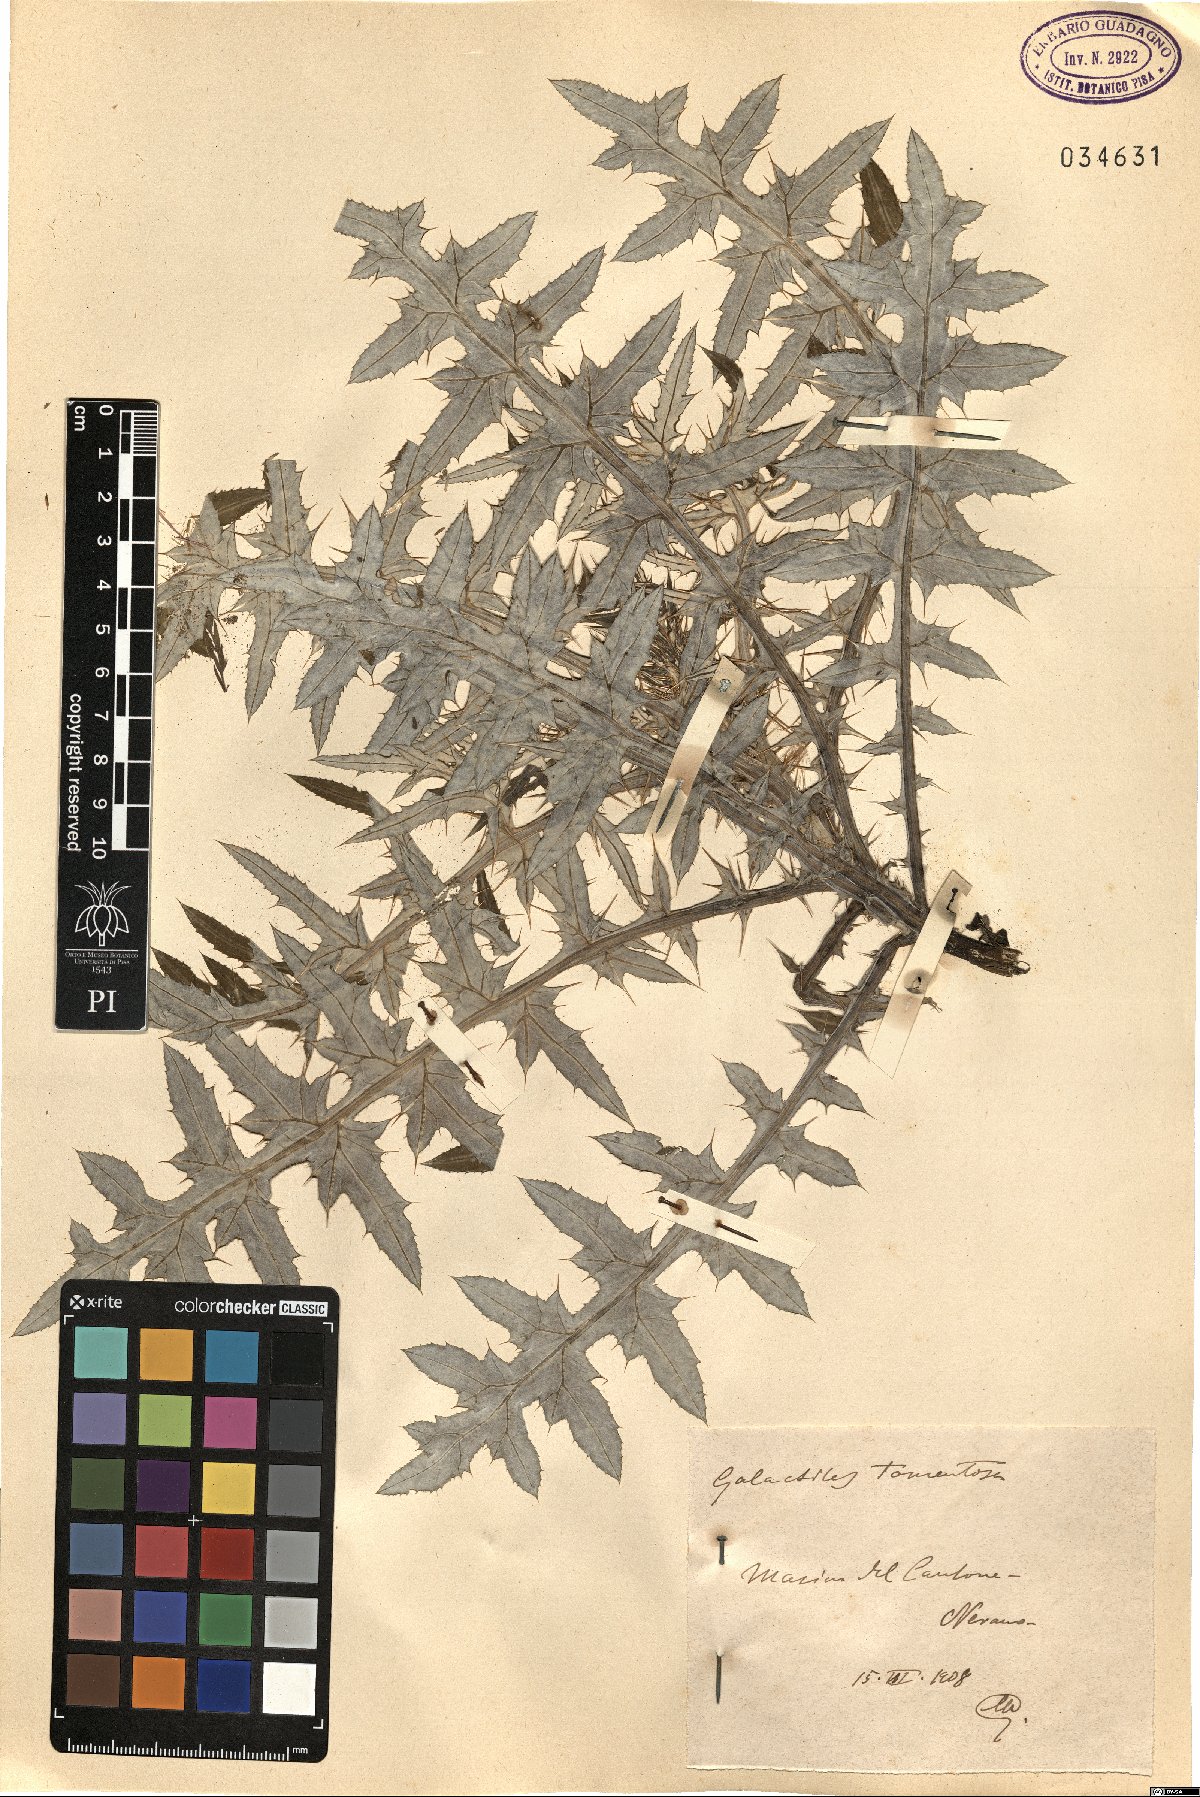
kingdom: Plantae
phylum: Tracheophyta
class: Magnoliopsida
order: Asterales
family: Asteraceae
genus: Galactites
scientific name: Galactites tomentosa
